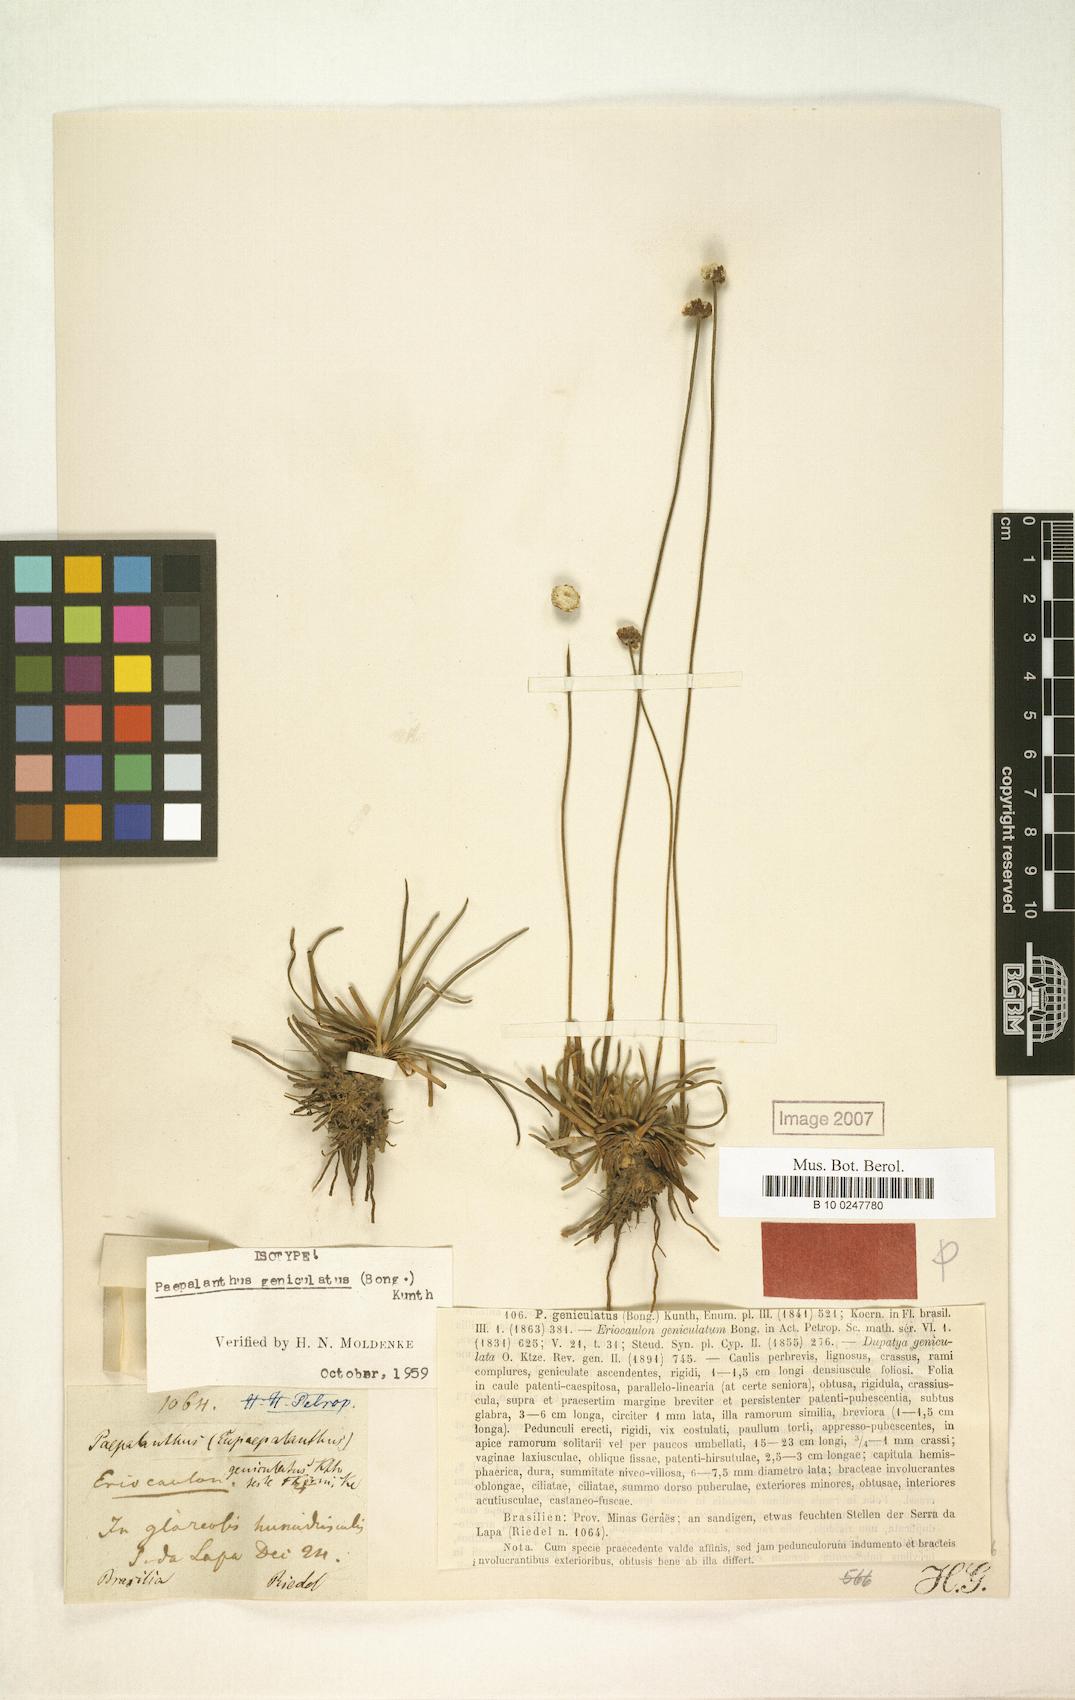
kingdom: Plantae
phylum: Tracheophyta
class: Liliopsida
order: Poales
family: Eriocaulaceae
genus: Paepalanthus
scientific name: Paepalanthus geniculatus
